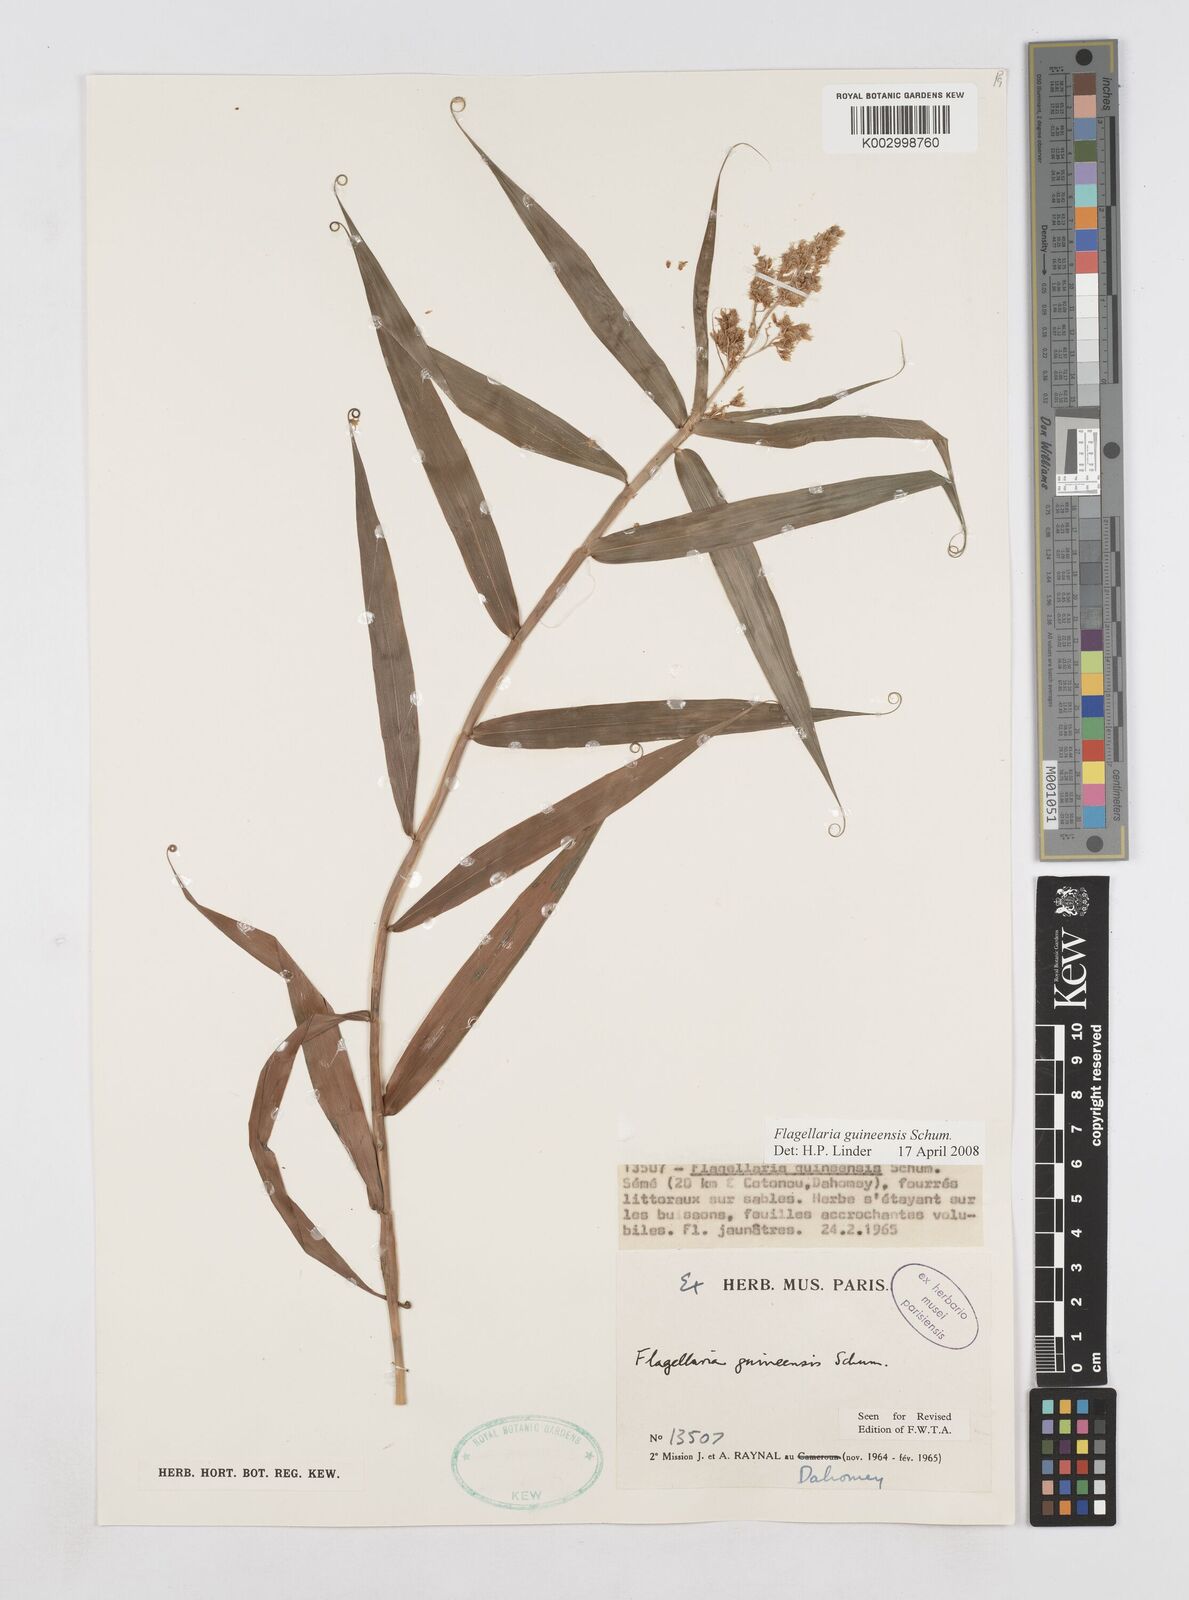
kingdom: Plantae
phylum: Tracheophyta
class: Liliopsida
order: Poales
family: Flagellariaceae
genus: Flagellaria
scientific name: Flagellaria guineensis
